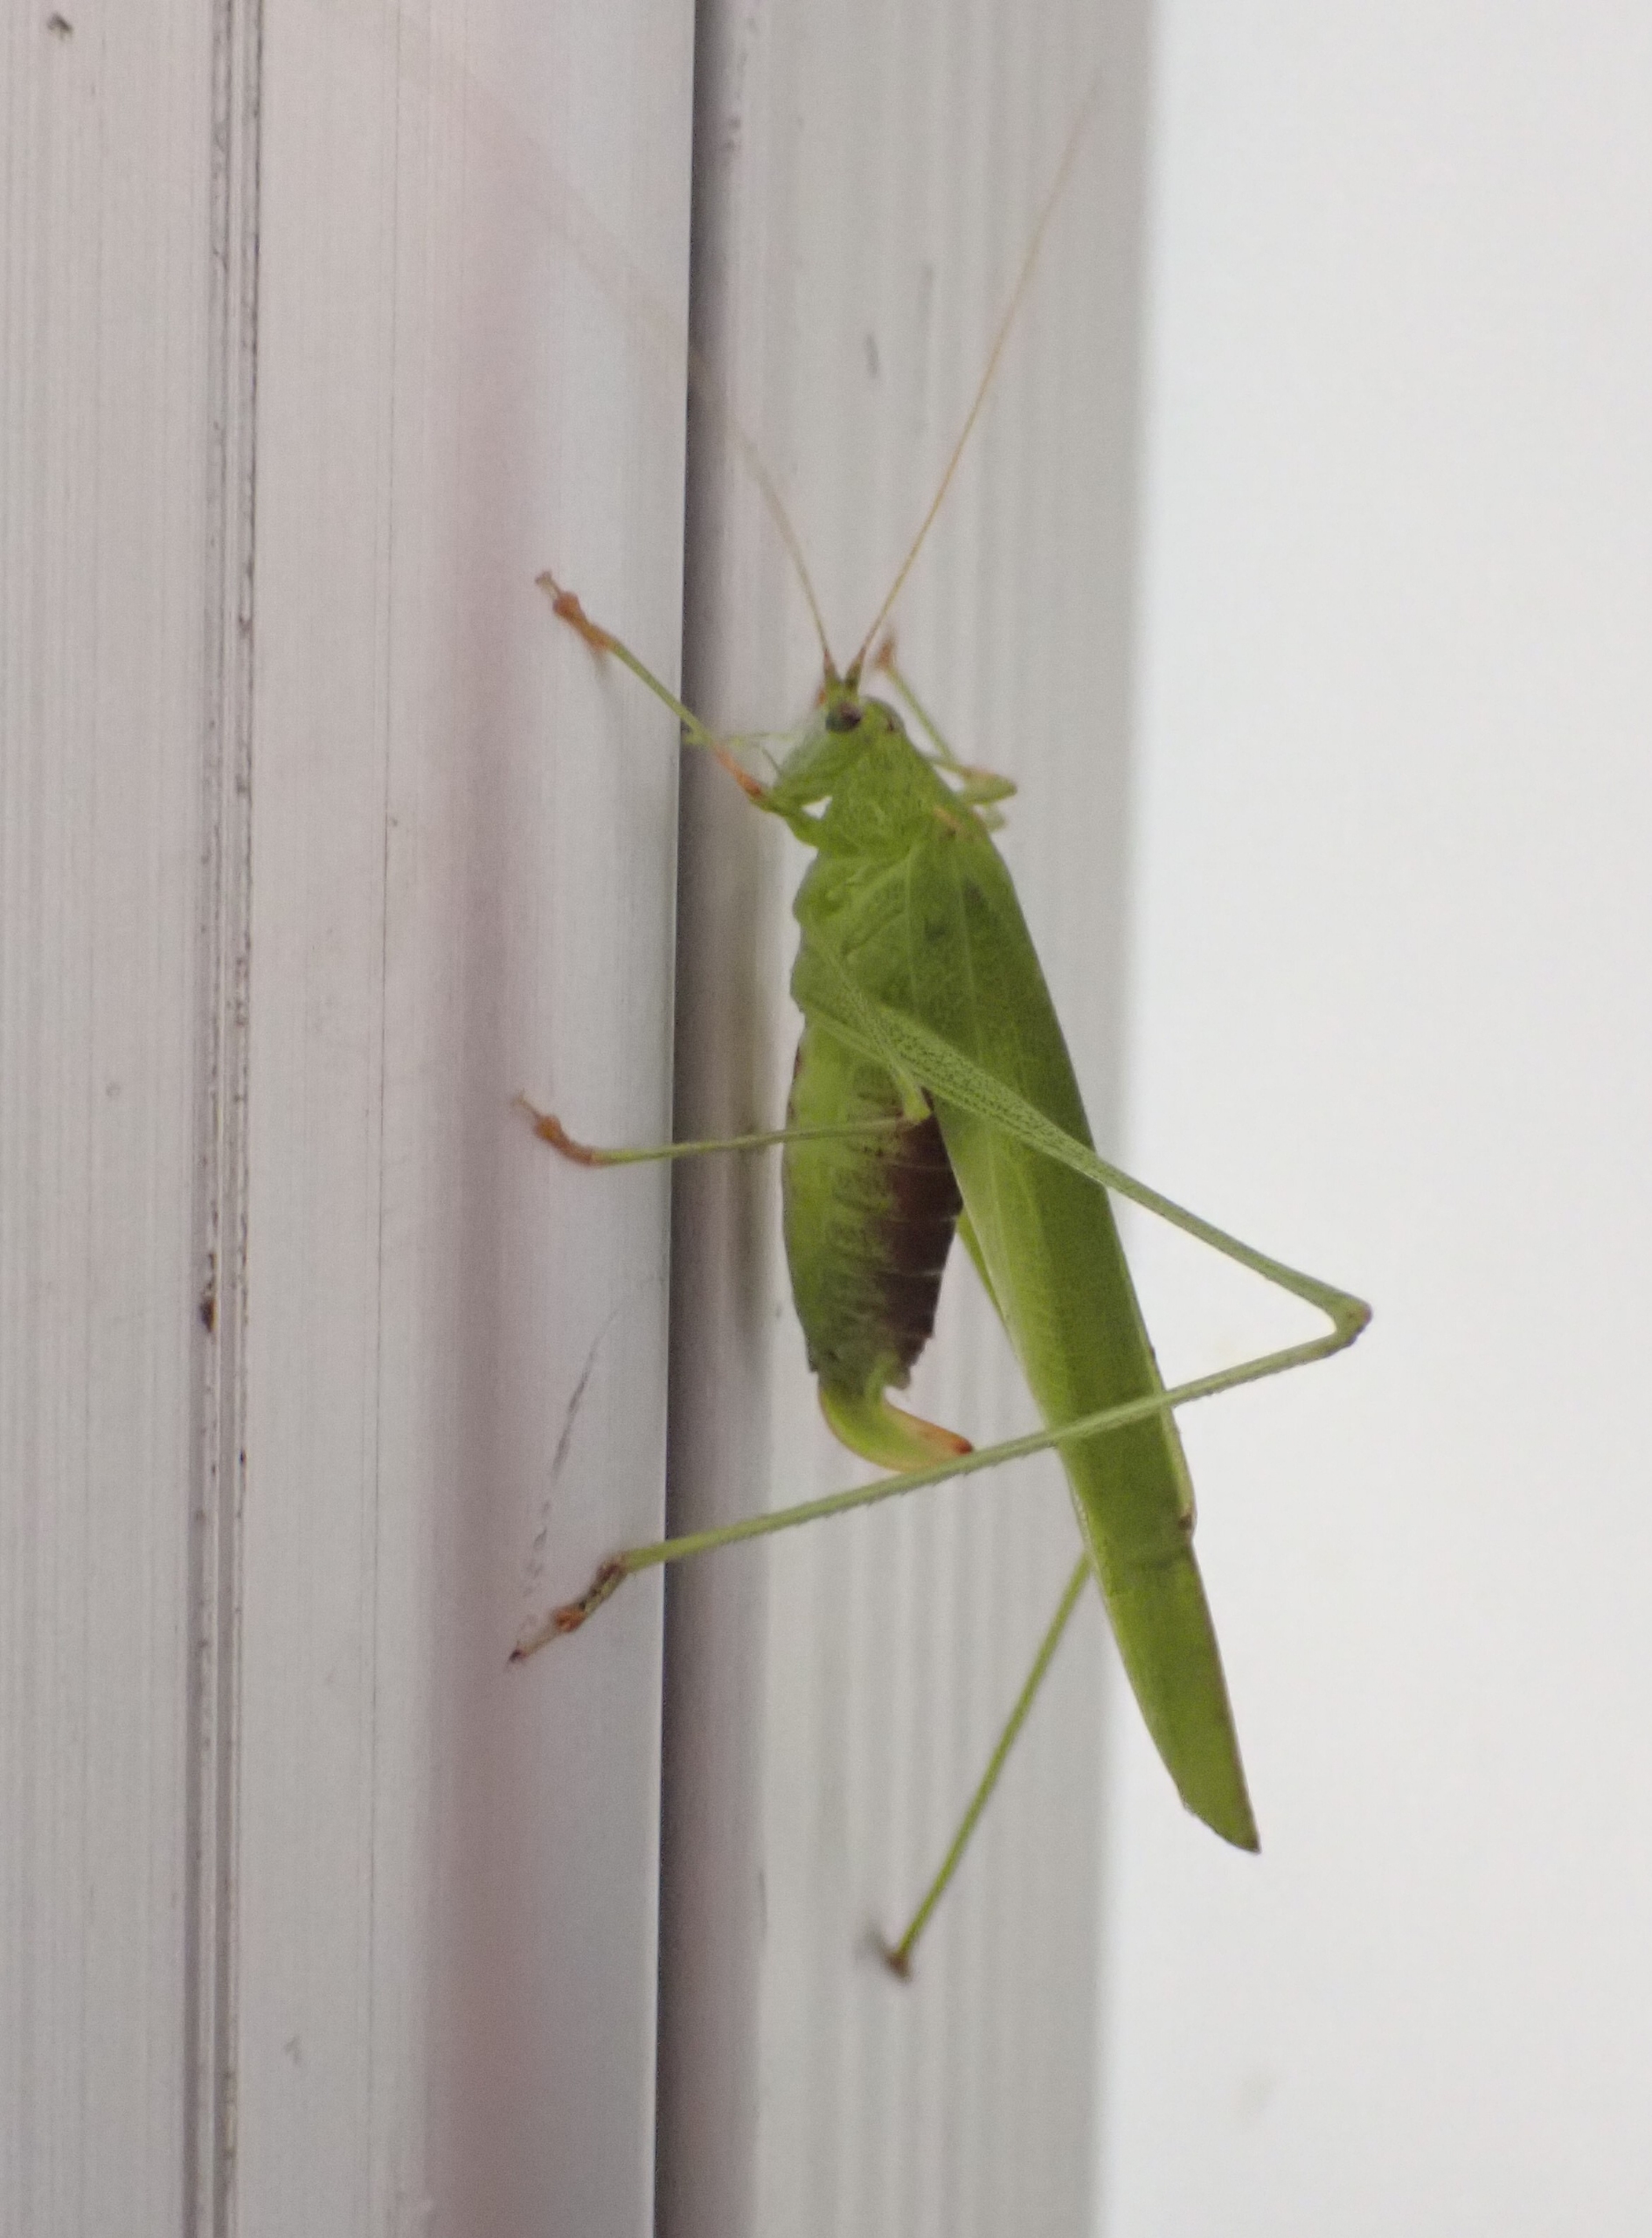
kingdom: Animalia
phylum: Arthropoda
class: Insecta
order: Orthoptera
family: Tettigoniidae
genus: Phaneroptera
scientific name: Phaneroptera falcata
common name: Seglgræshoppe
